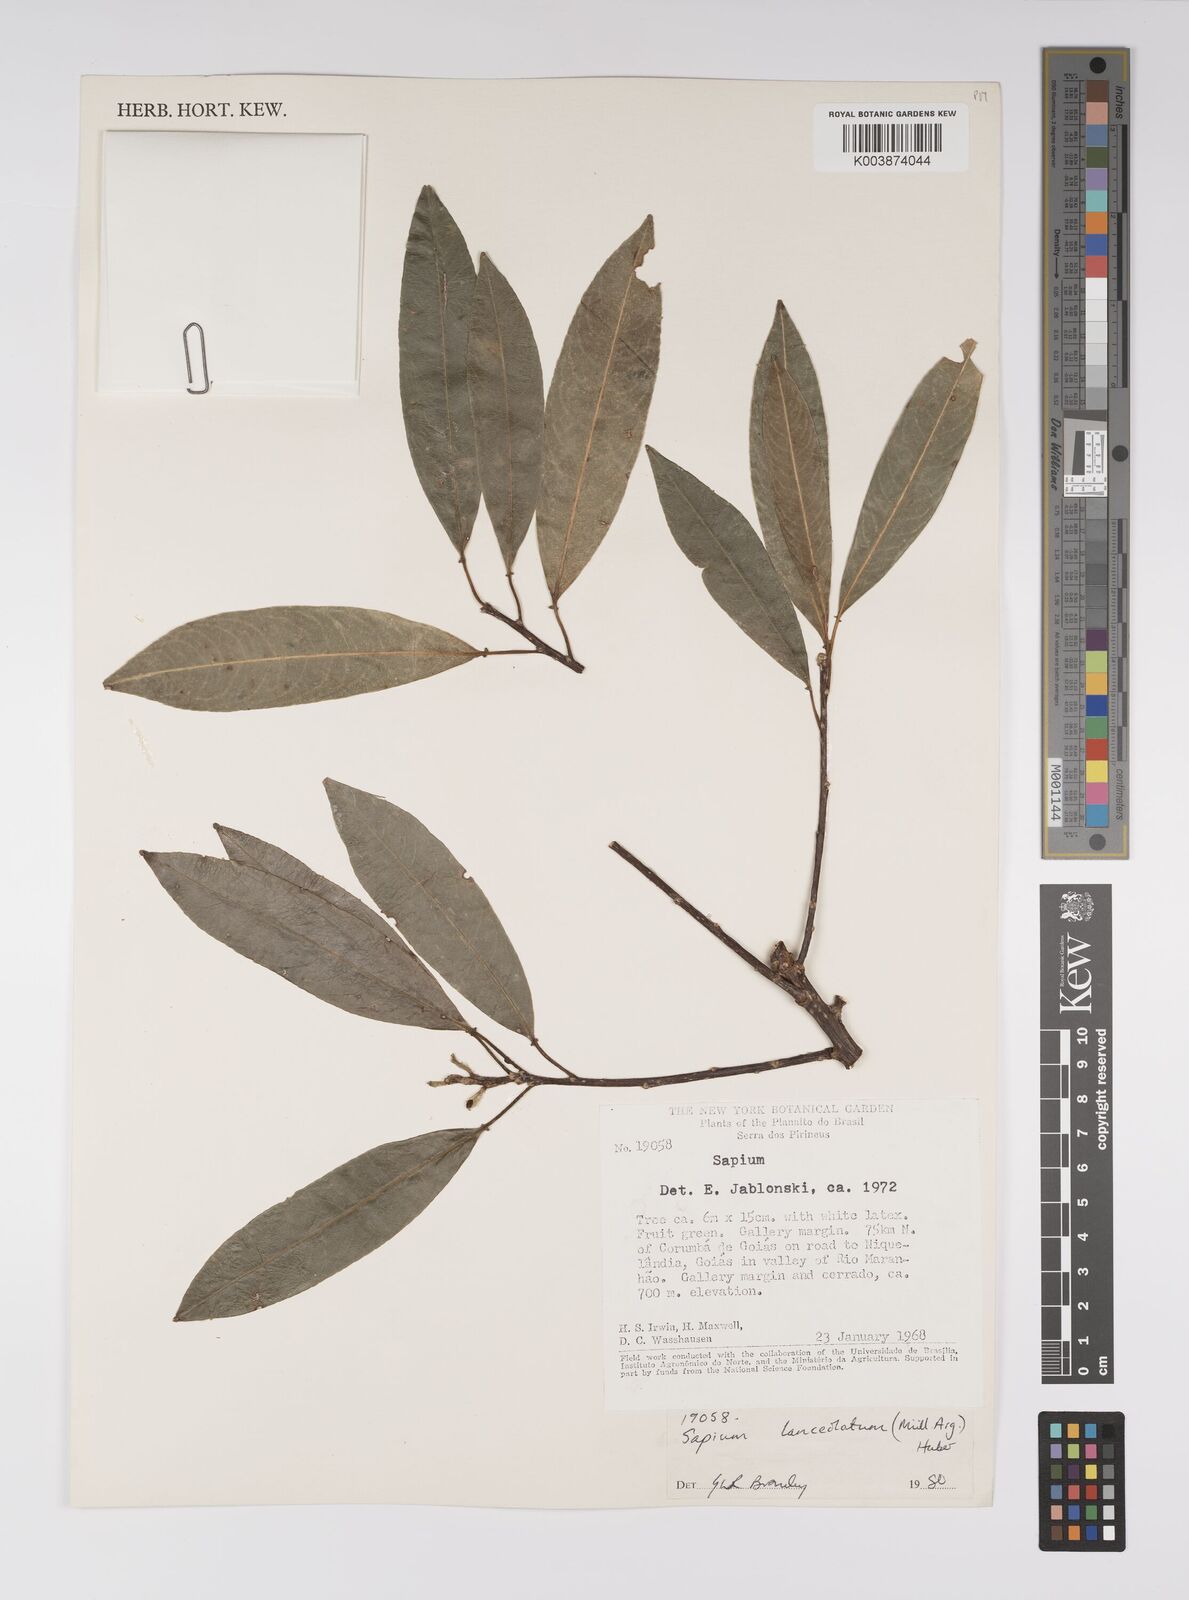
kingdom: Plantae
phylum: Tracheophyta
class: Magnoliopsida
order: Malpighiales
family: Euphorbiaceae
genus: Sapium
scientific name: Sapium glandulosum
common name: Milktree
